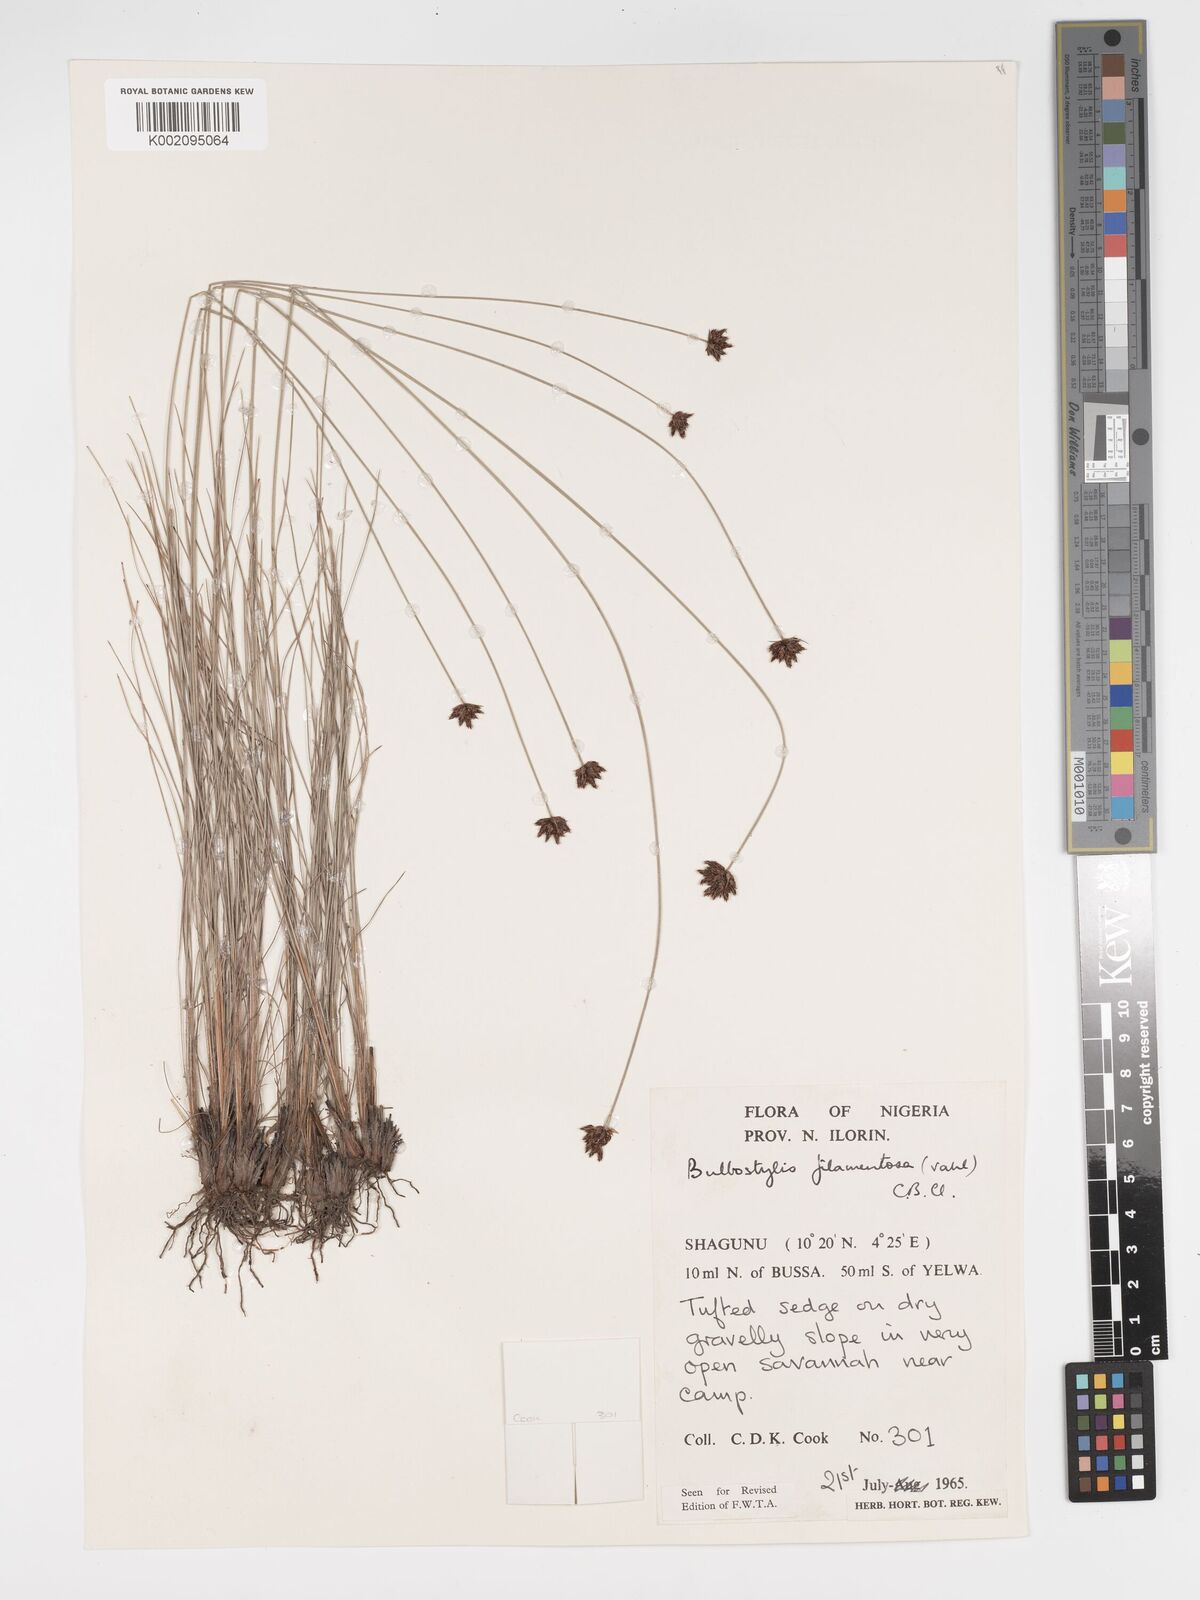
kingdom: Plantae
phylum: Tracheophyta
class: Liliopsida
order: Poales
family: Cyperaceae
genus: Bulbostylis
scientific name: Bulbostylis scabricaulis
